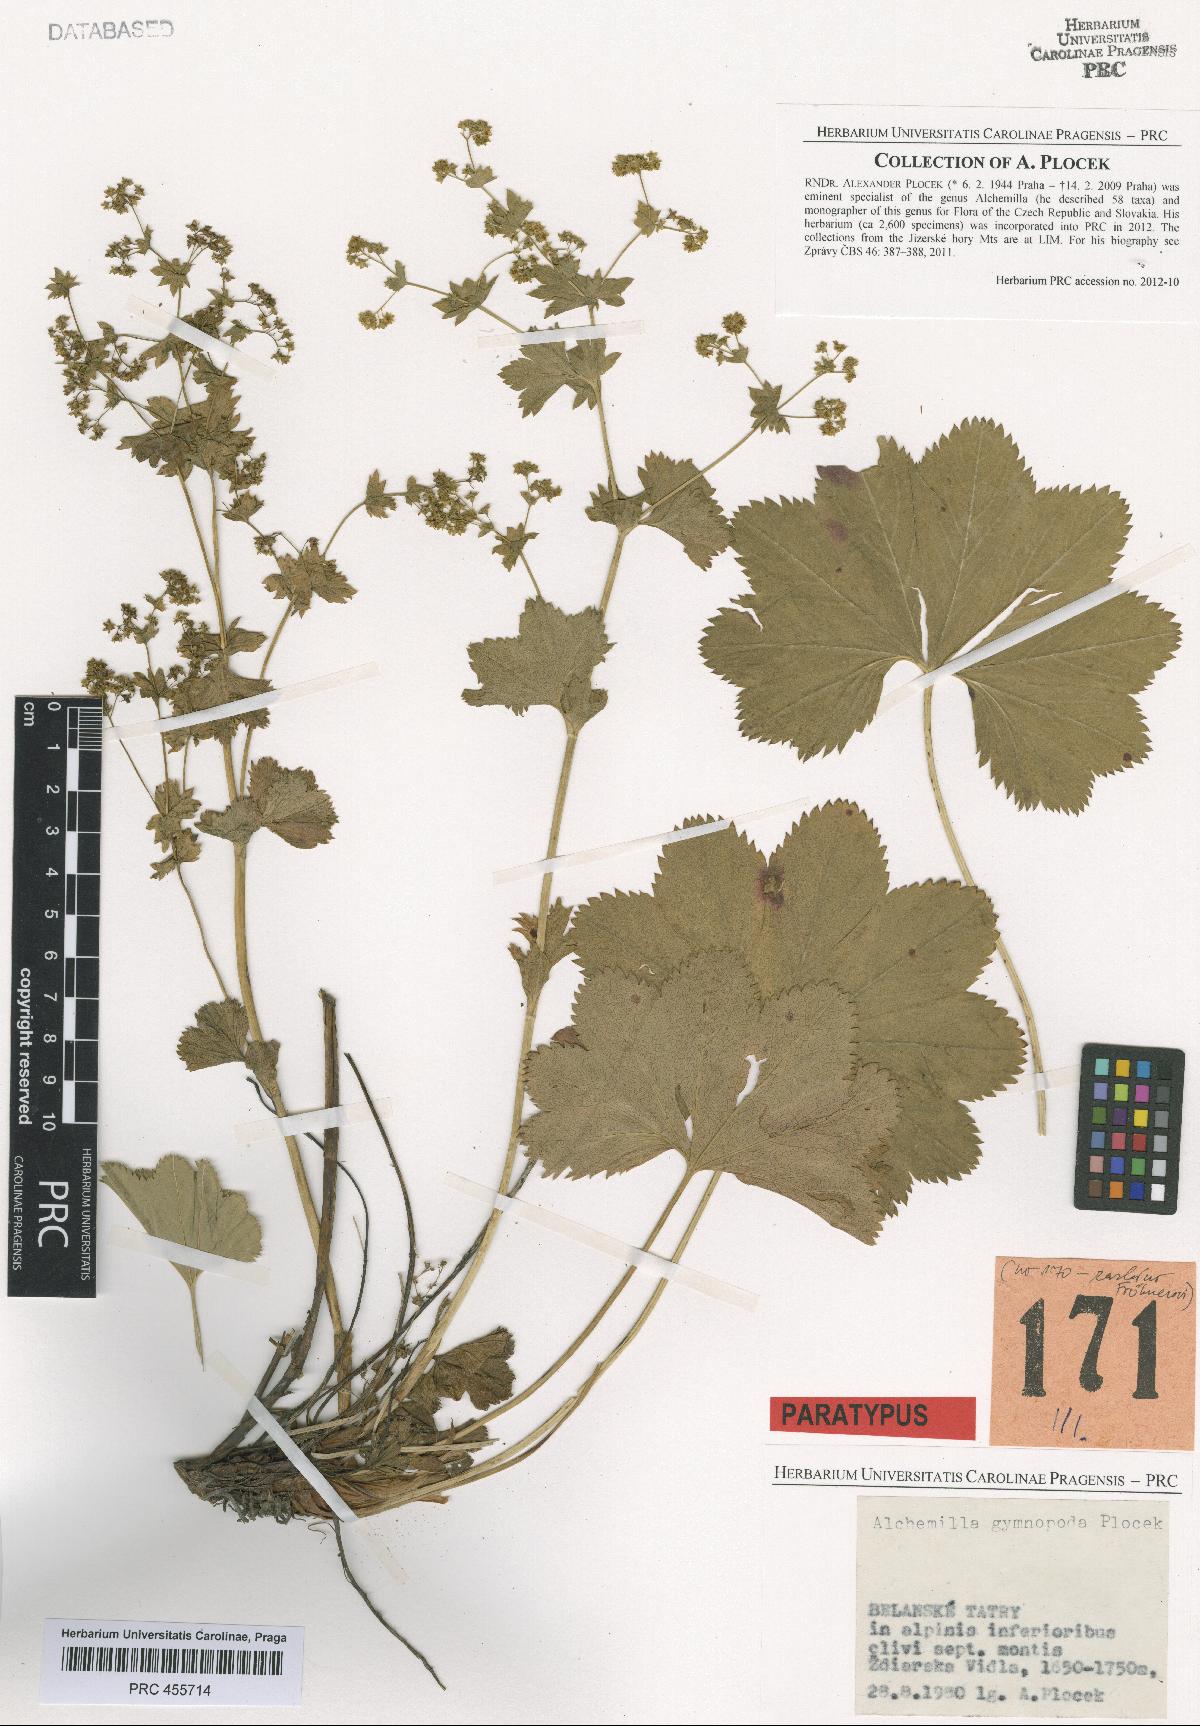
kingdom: Plantae
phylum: Tracheophyta
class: Magnoliopsida
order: Rosales
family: Rosaceae
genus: Alchemilla
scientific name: Alchemilla gymnopoda
